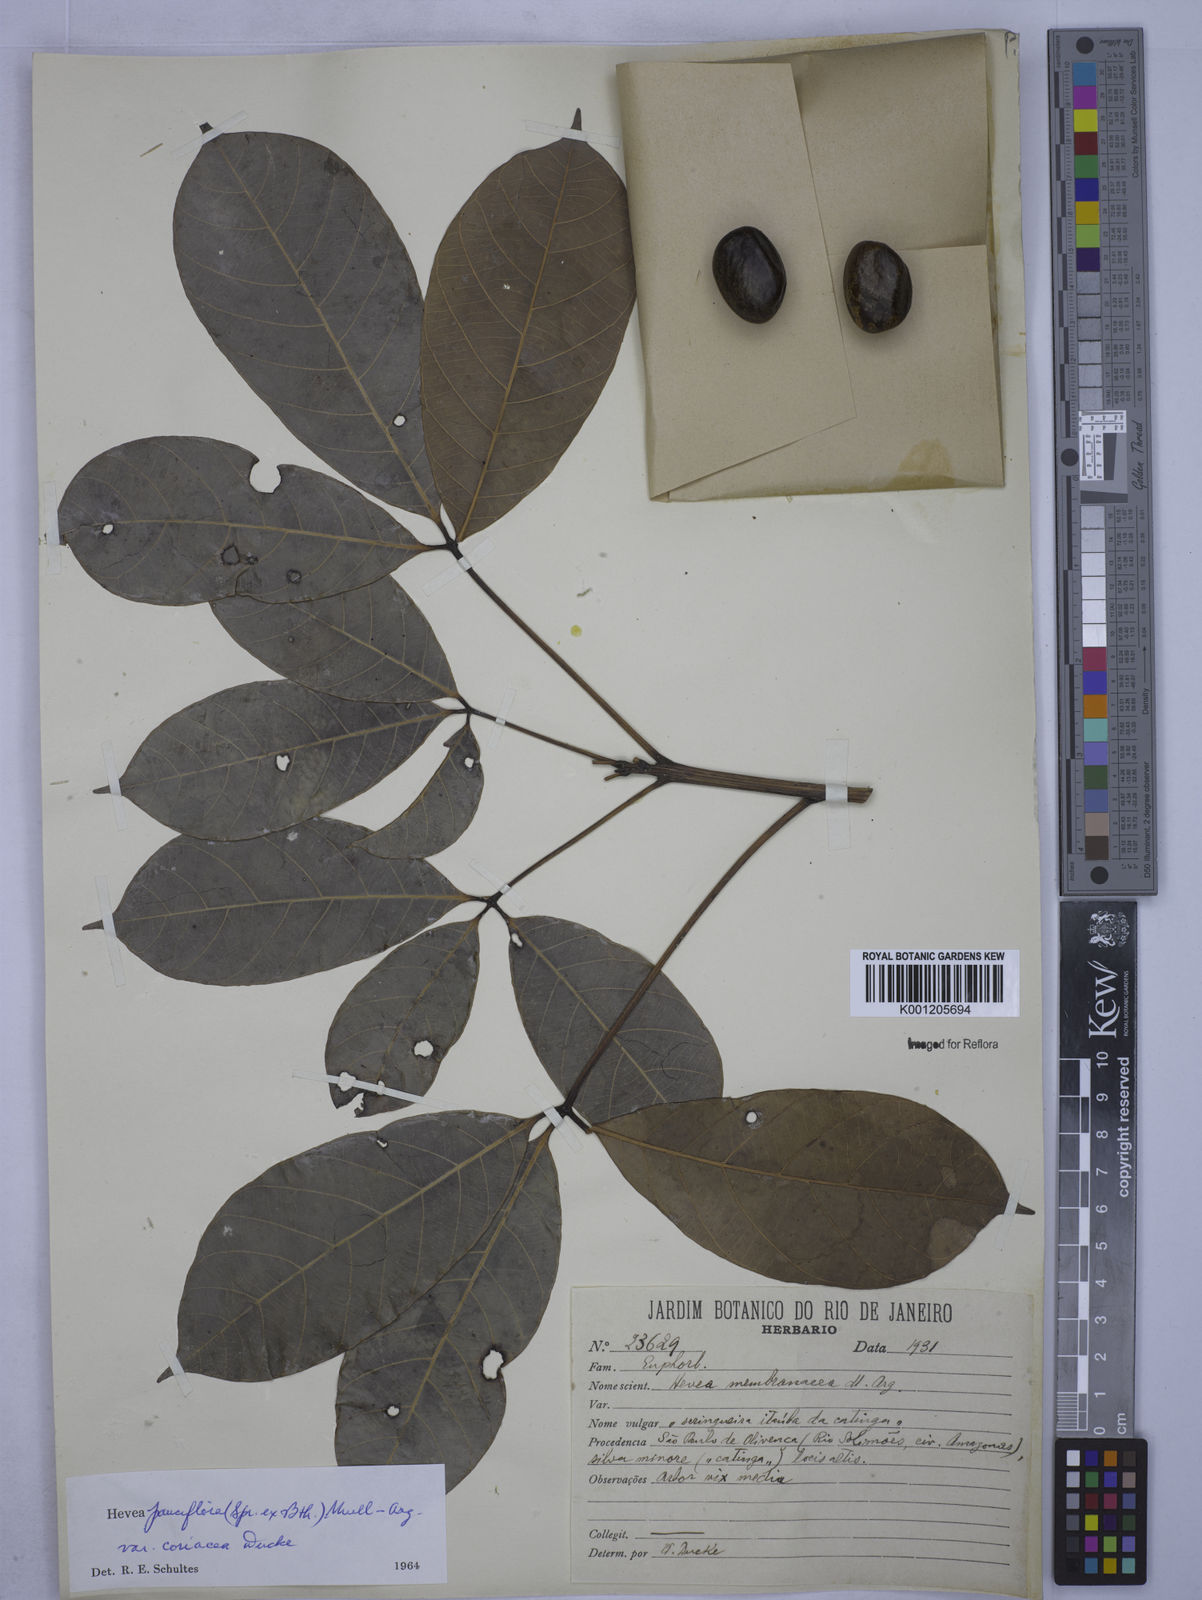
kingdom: Plantae
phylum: Tracheophyta
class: Magnoliopsida
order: Malpighiales
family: Euphorbiaceae
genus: Hevea
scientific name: Hevea pauciflora
